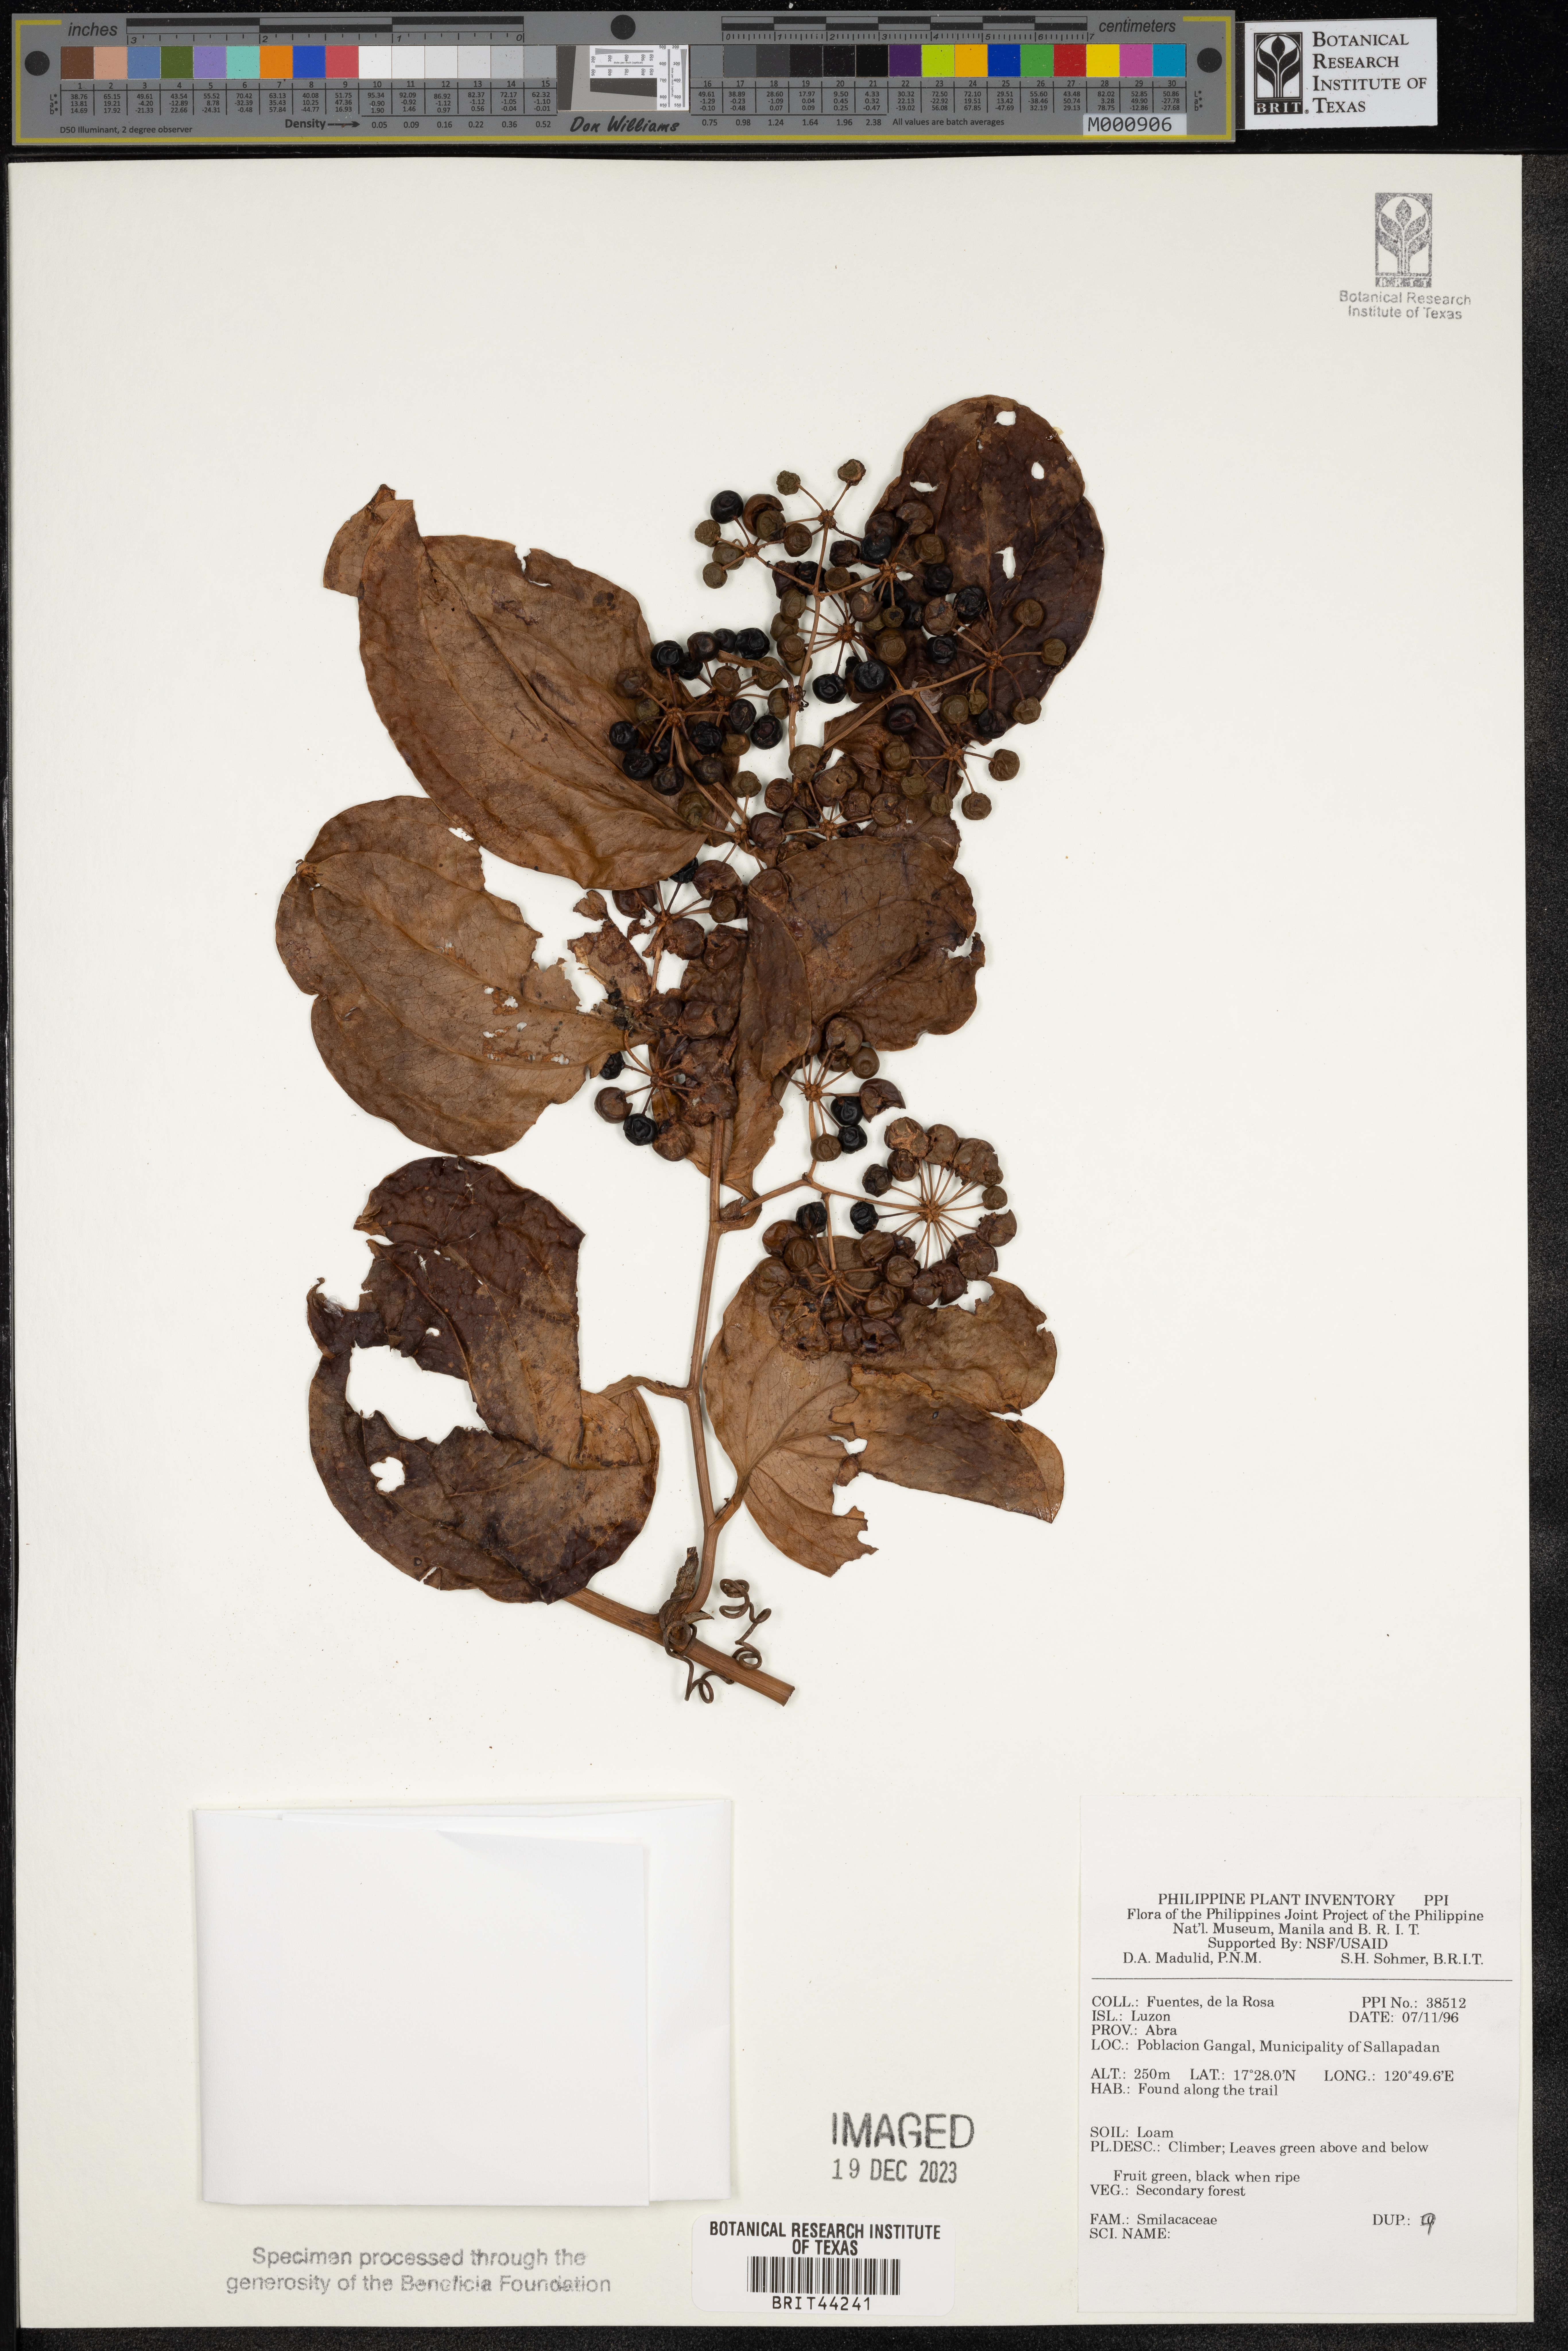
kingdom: Plantae
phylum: Tracheophyta
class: Liliopsida
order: Liliales
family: Smilacaceae
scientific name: Smilacaceae
